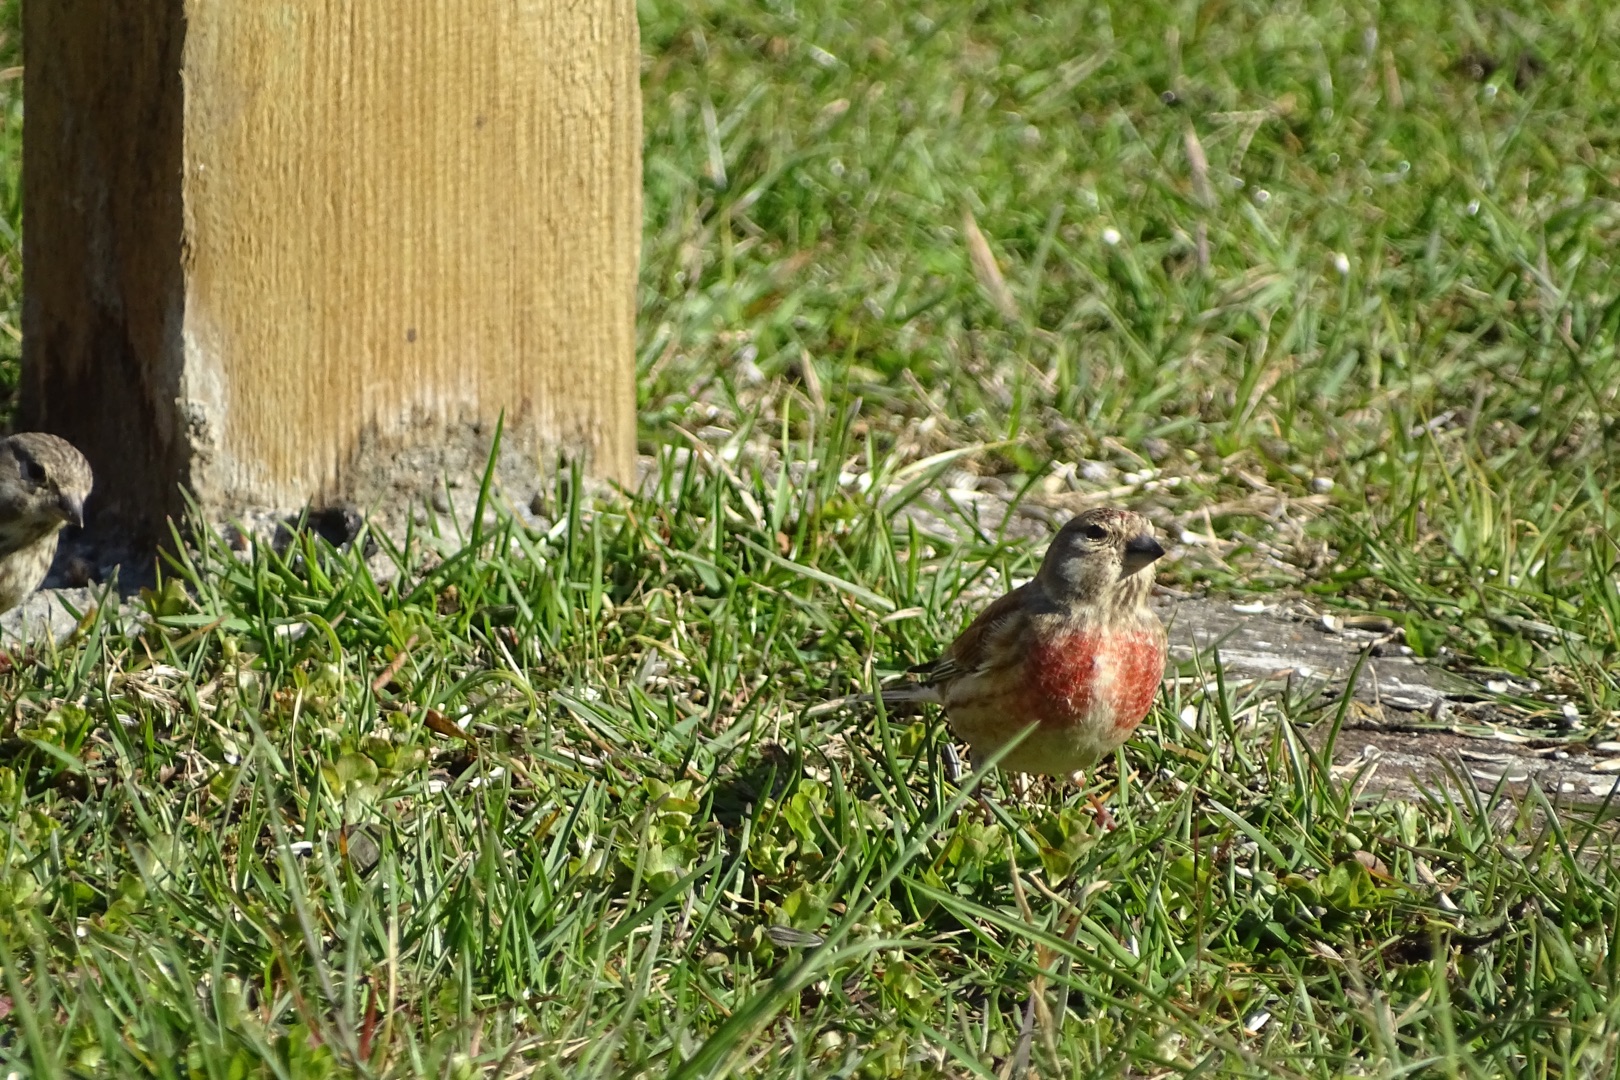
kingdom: Animalia
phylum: Chordata
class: Aves
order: Passeriformes
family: Fringillidae
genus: Linaria
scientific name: Linaria cannabina
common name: Tornirisk
